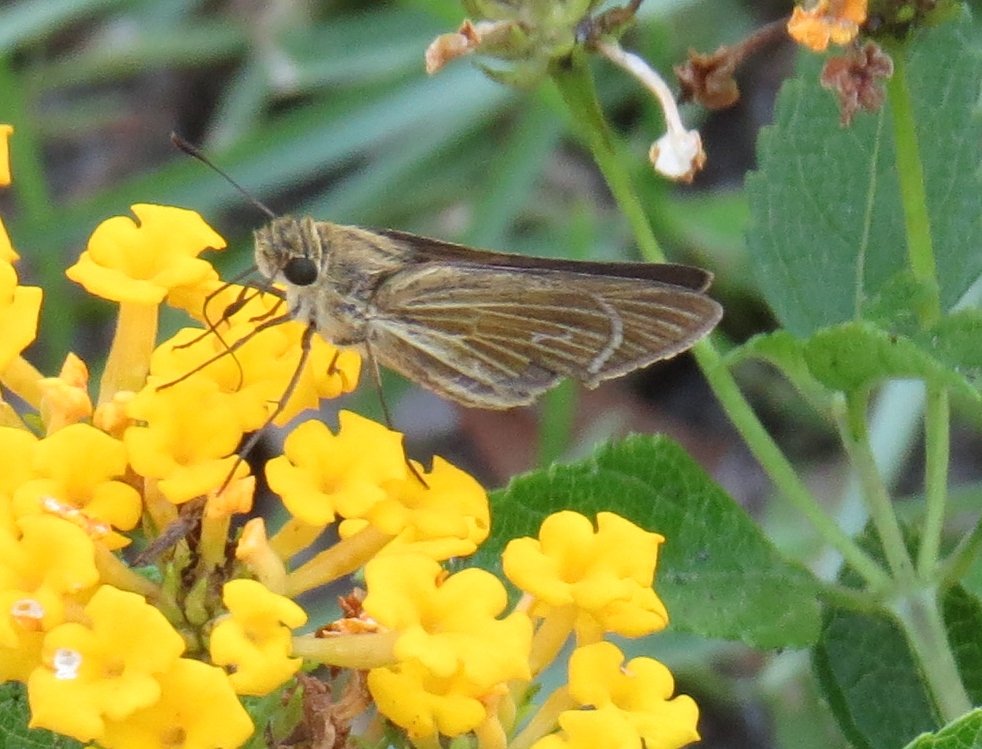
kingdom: Animalia
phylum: Arthropoda
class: Insecta
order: Lepidoptera
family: Hesperiidae
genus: Panoquina
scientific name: Panoquina ocola
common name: Ocola Skipper
